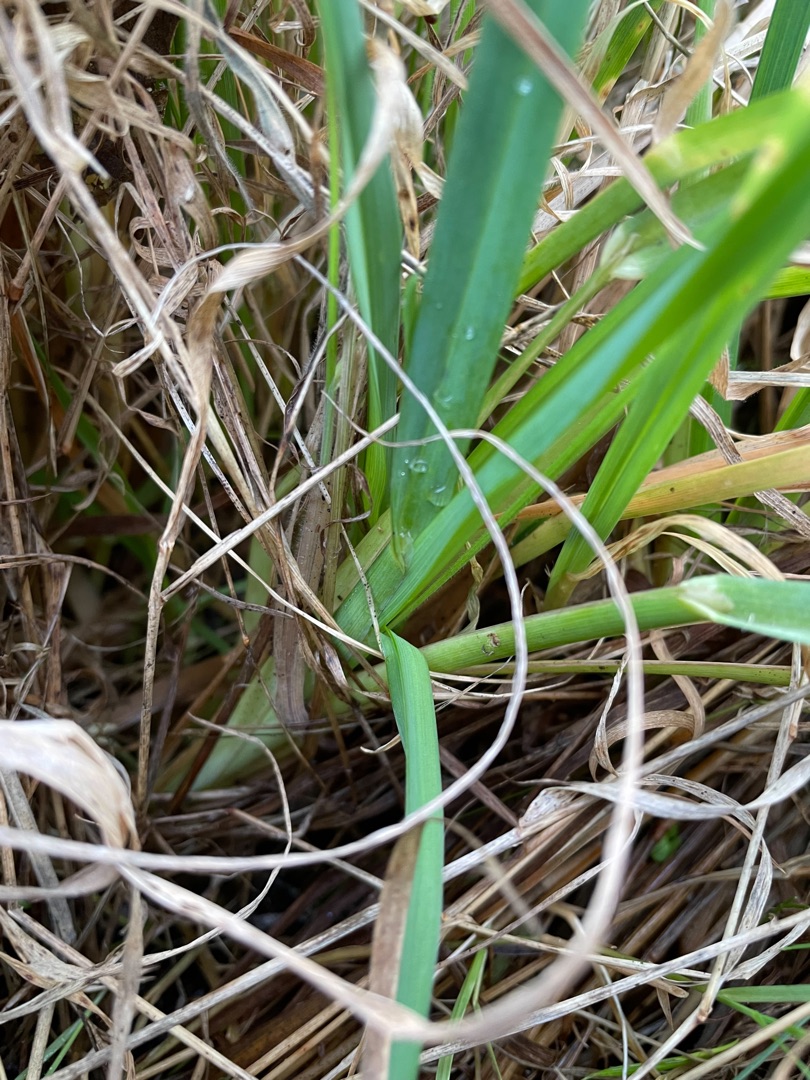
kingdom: Plantae
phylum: Tracheophyta
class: Liliopsida
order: Poales
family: Poaceae
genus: Dactylis
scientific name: Dactylis glomerata
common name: Almindelig hundegræs
